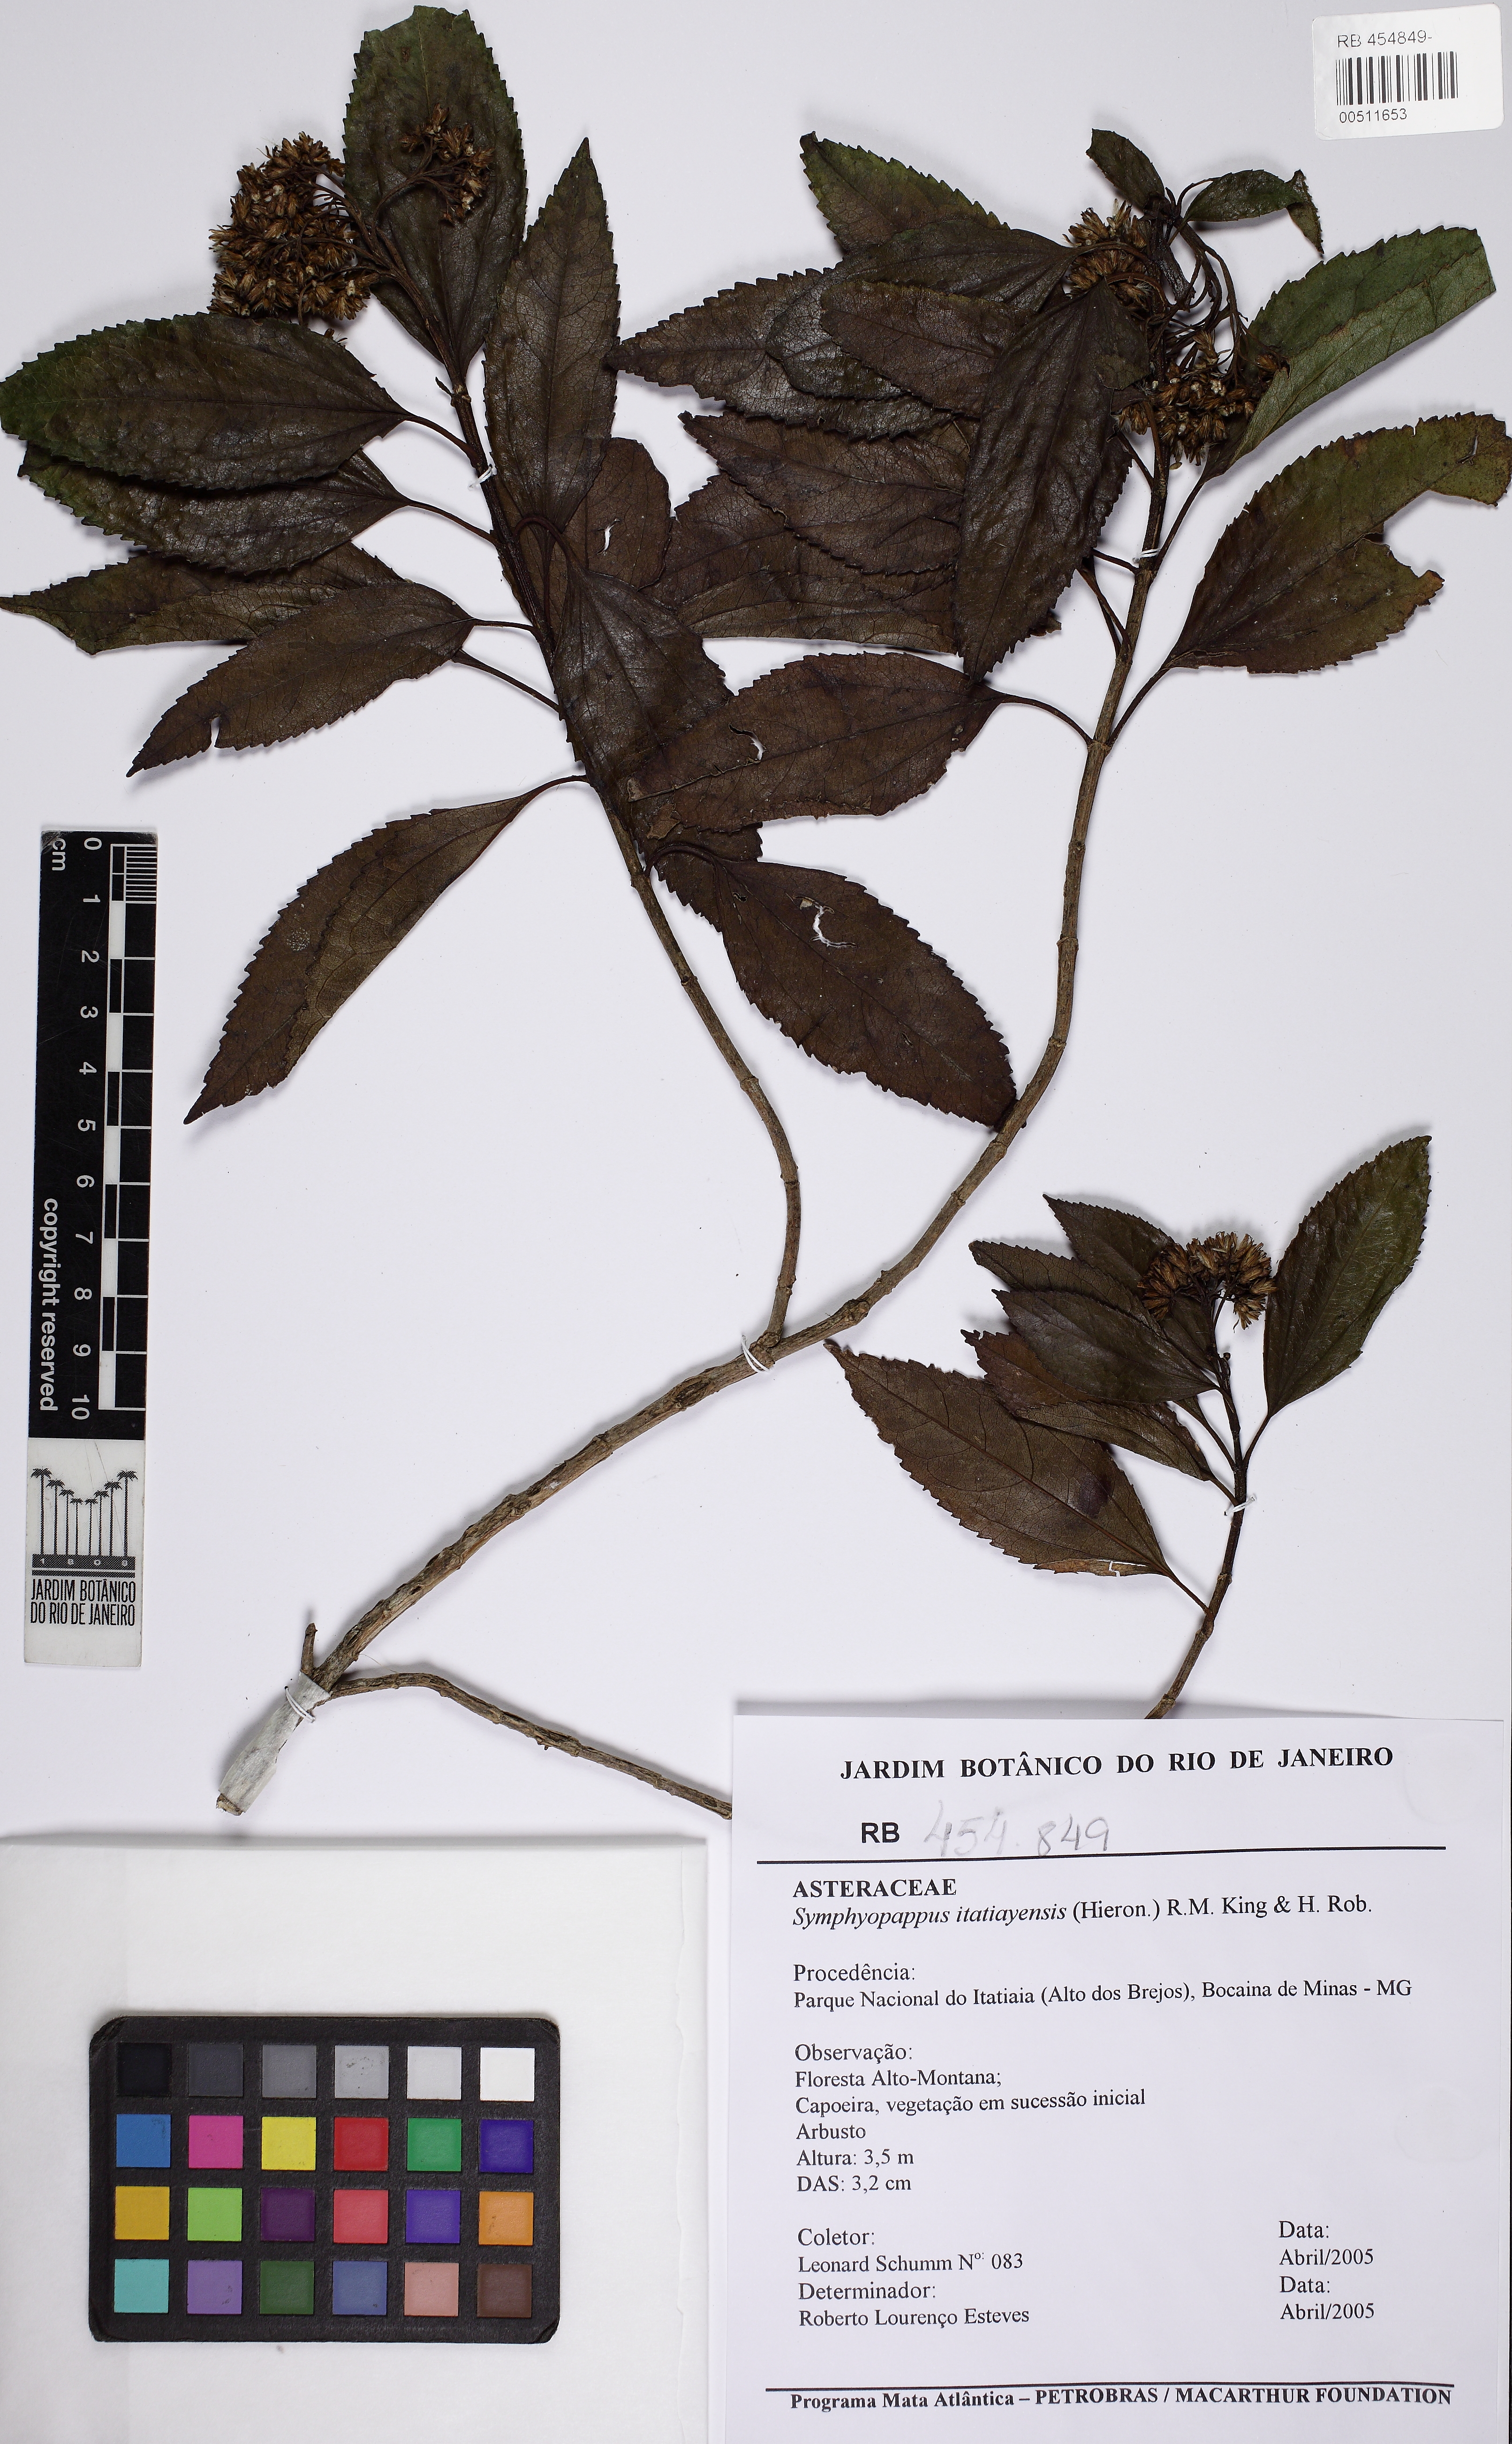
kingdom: Plantae
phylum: Tracheophyta
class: Magnoliopsida
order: Asterales
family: Asteraceae
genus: Symphyopappus
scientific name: Symphyopappus itatiayensis
